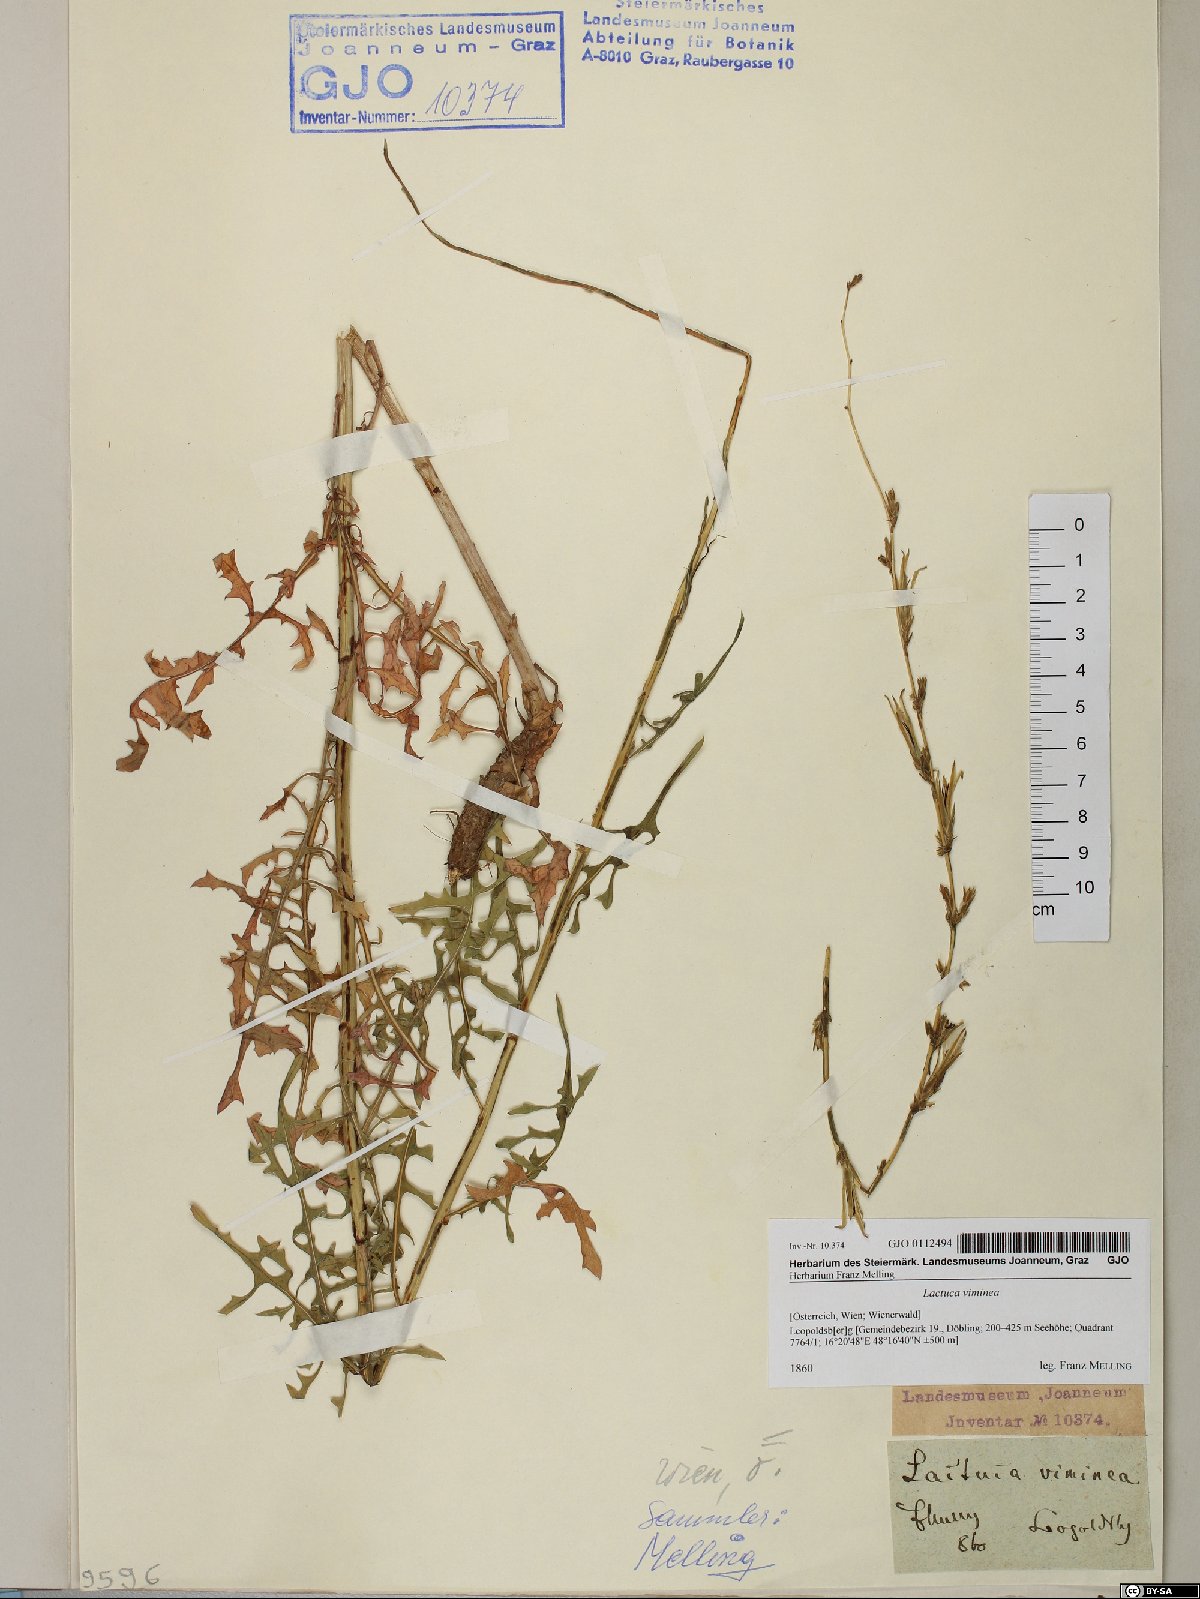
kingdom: Plantae
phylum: Tracheophyta
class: Magnoliopsida
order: Asterales
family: Asteraceae
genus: Lactuca
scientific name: Lactuca viminea
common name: Pliant lettuce
